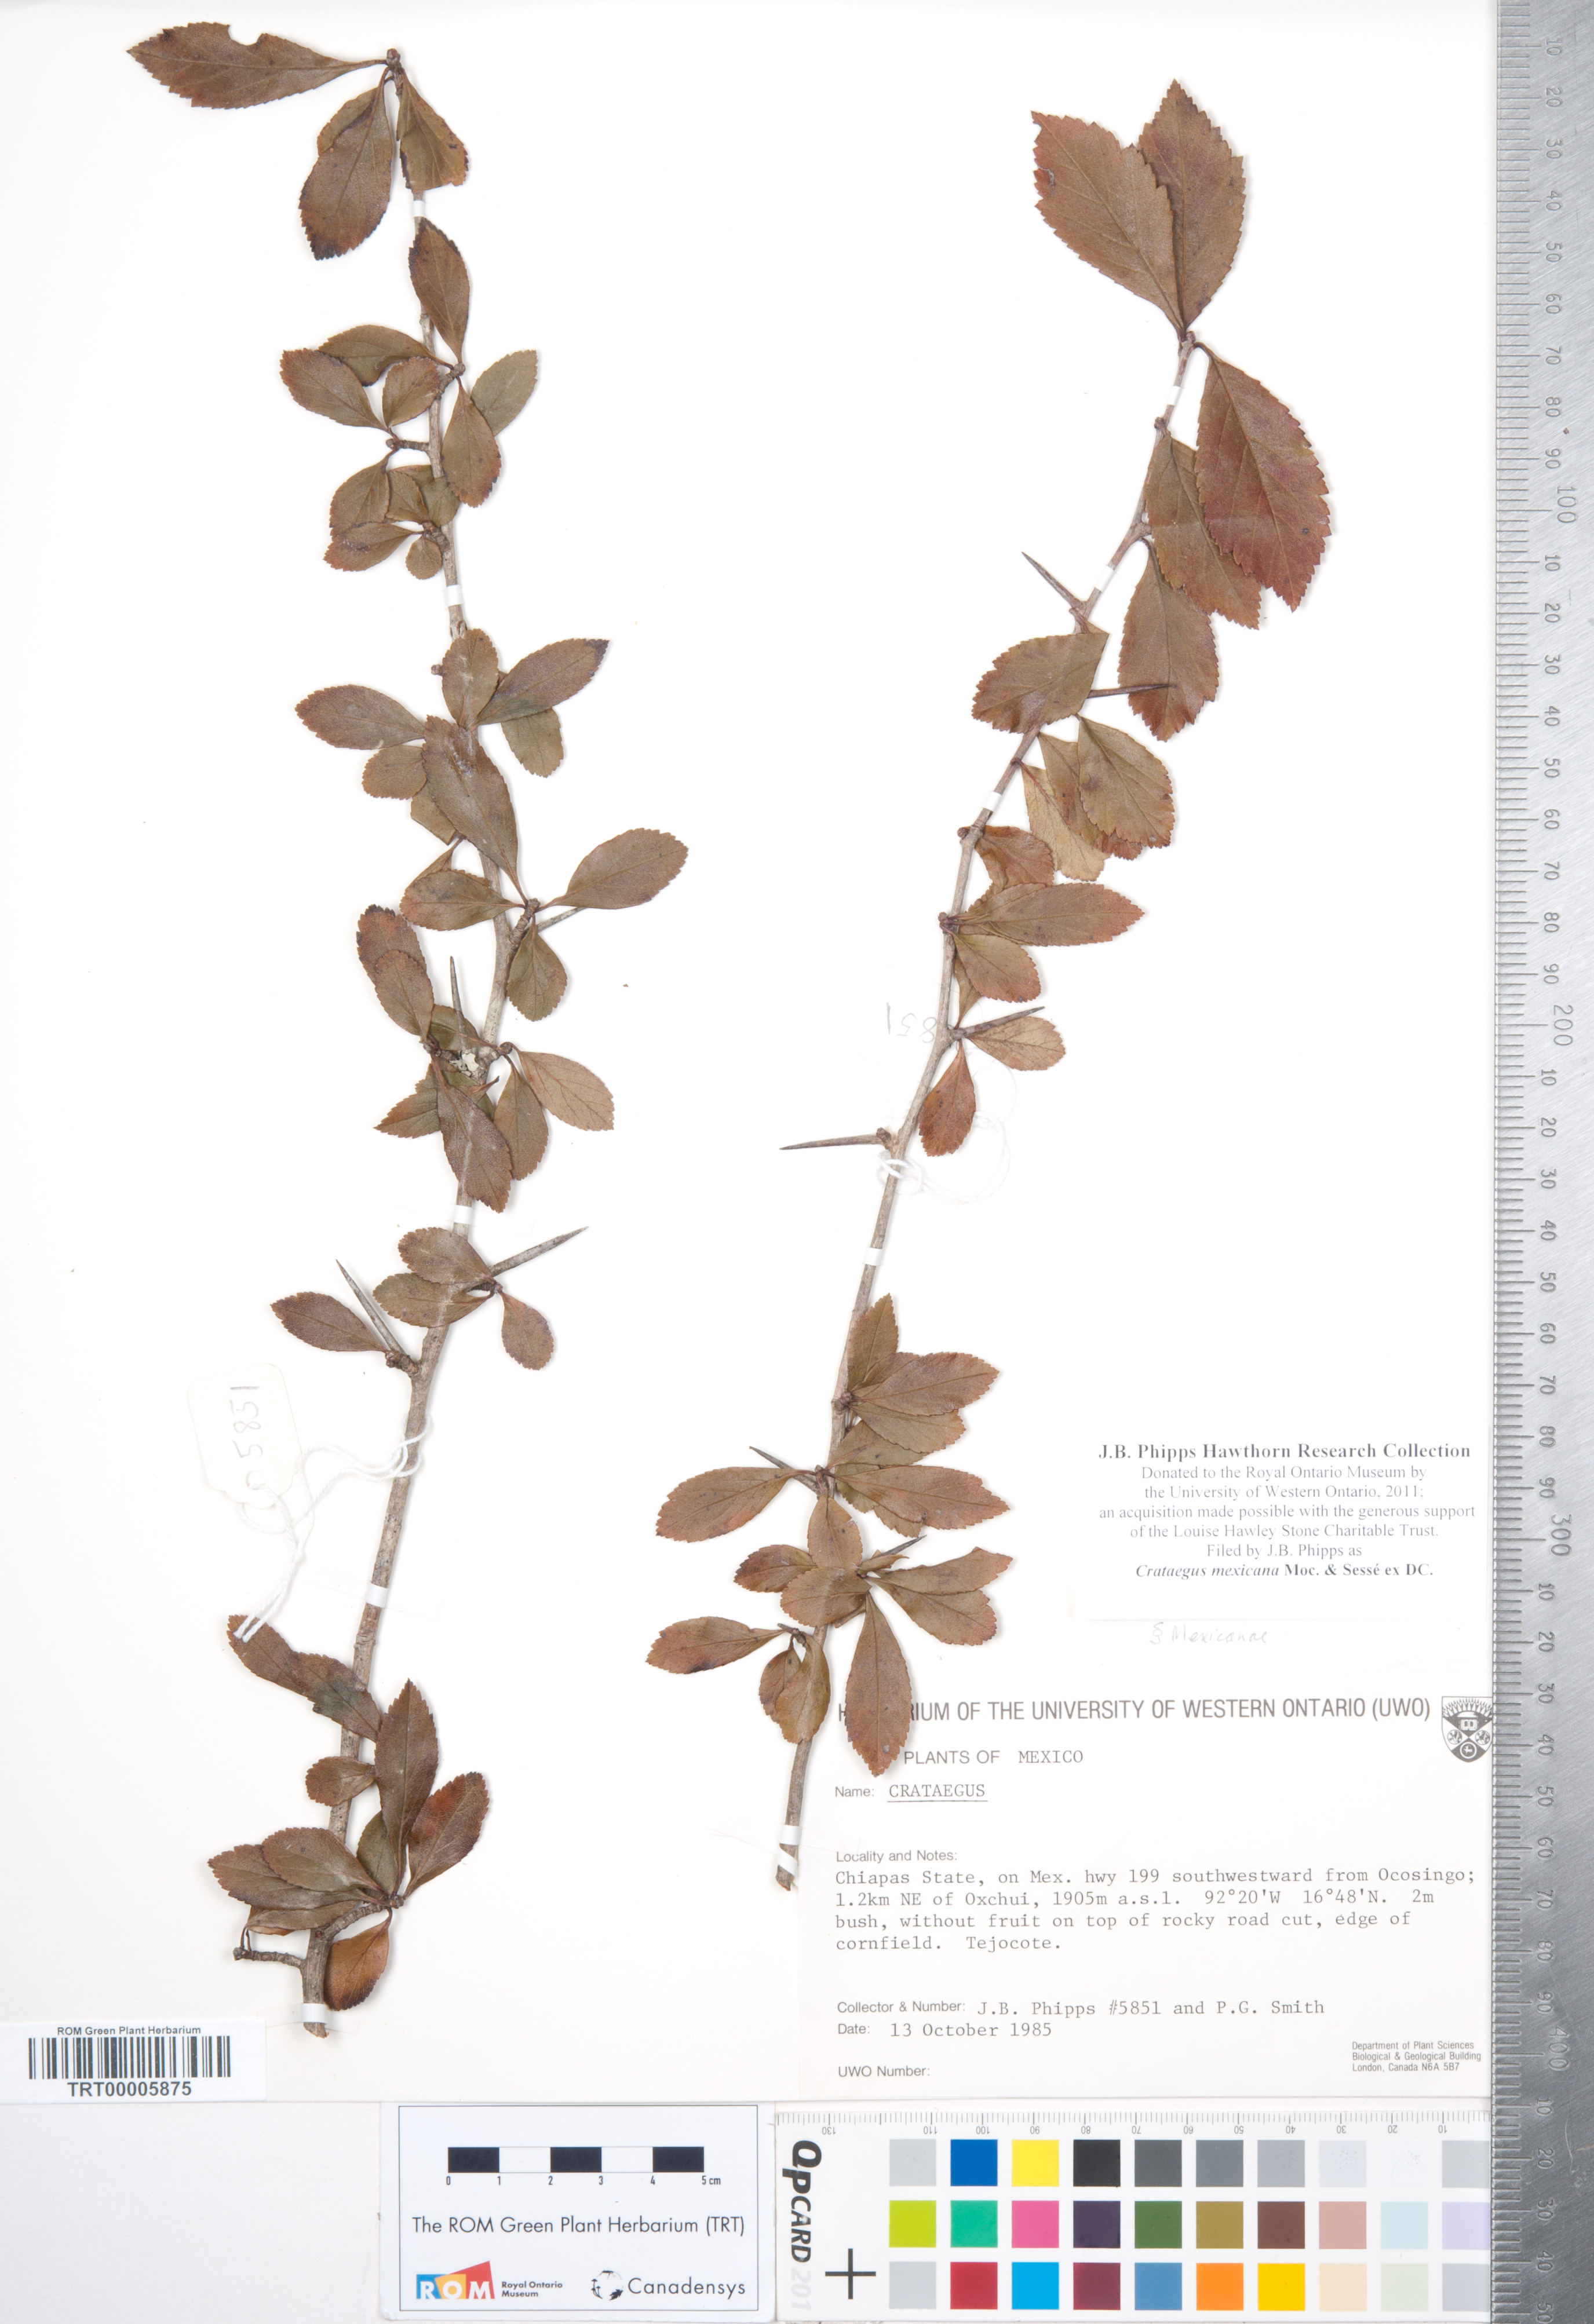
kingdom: Plantae
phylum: Tracheophyta
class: Magnoliopsida
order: Rosales
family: Rosaceae
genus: Crataegus
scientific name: Crataegus mexicana
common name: Mexican hawthorn
